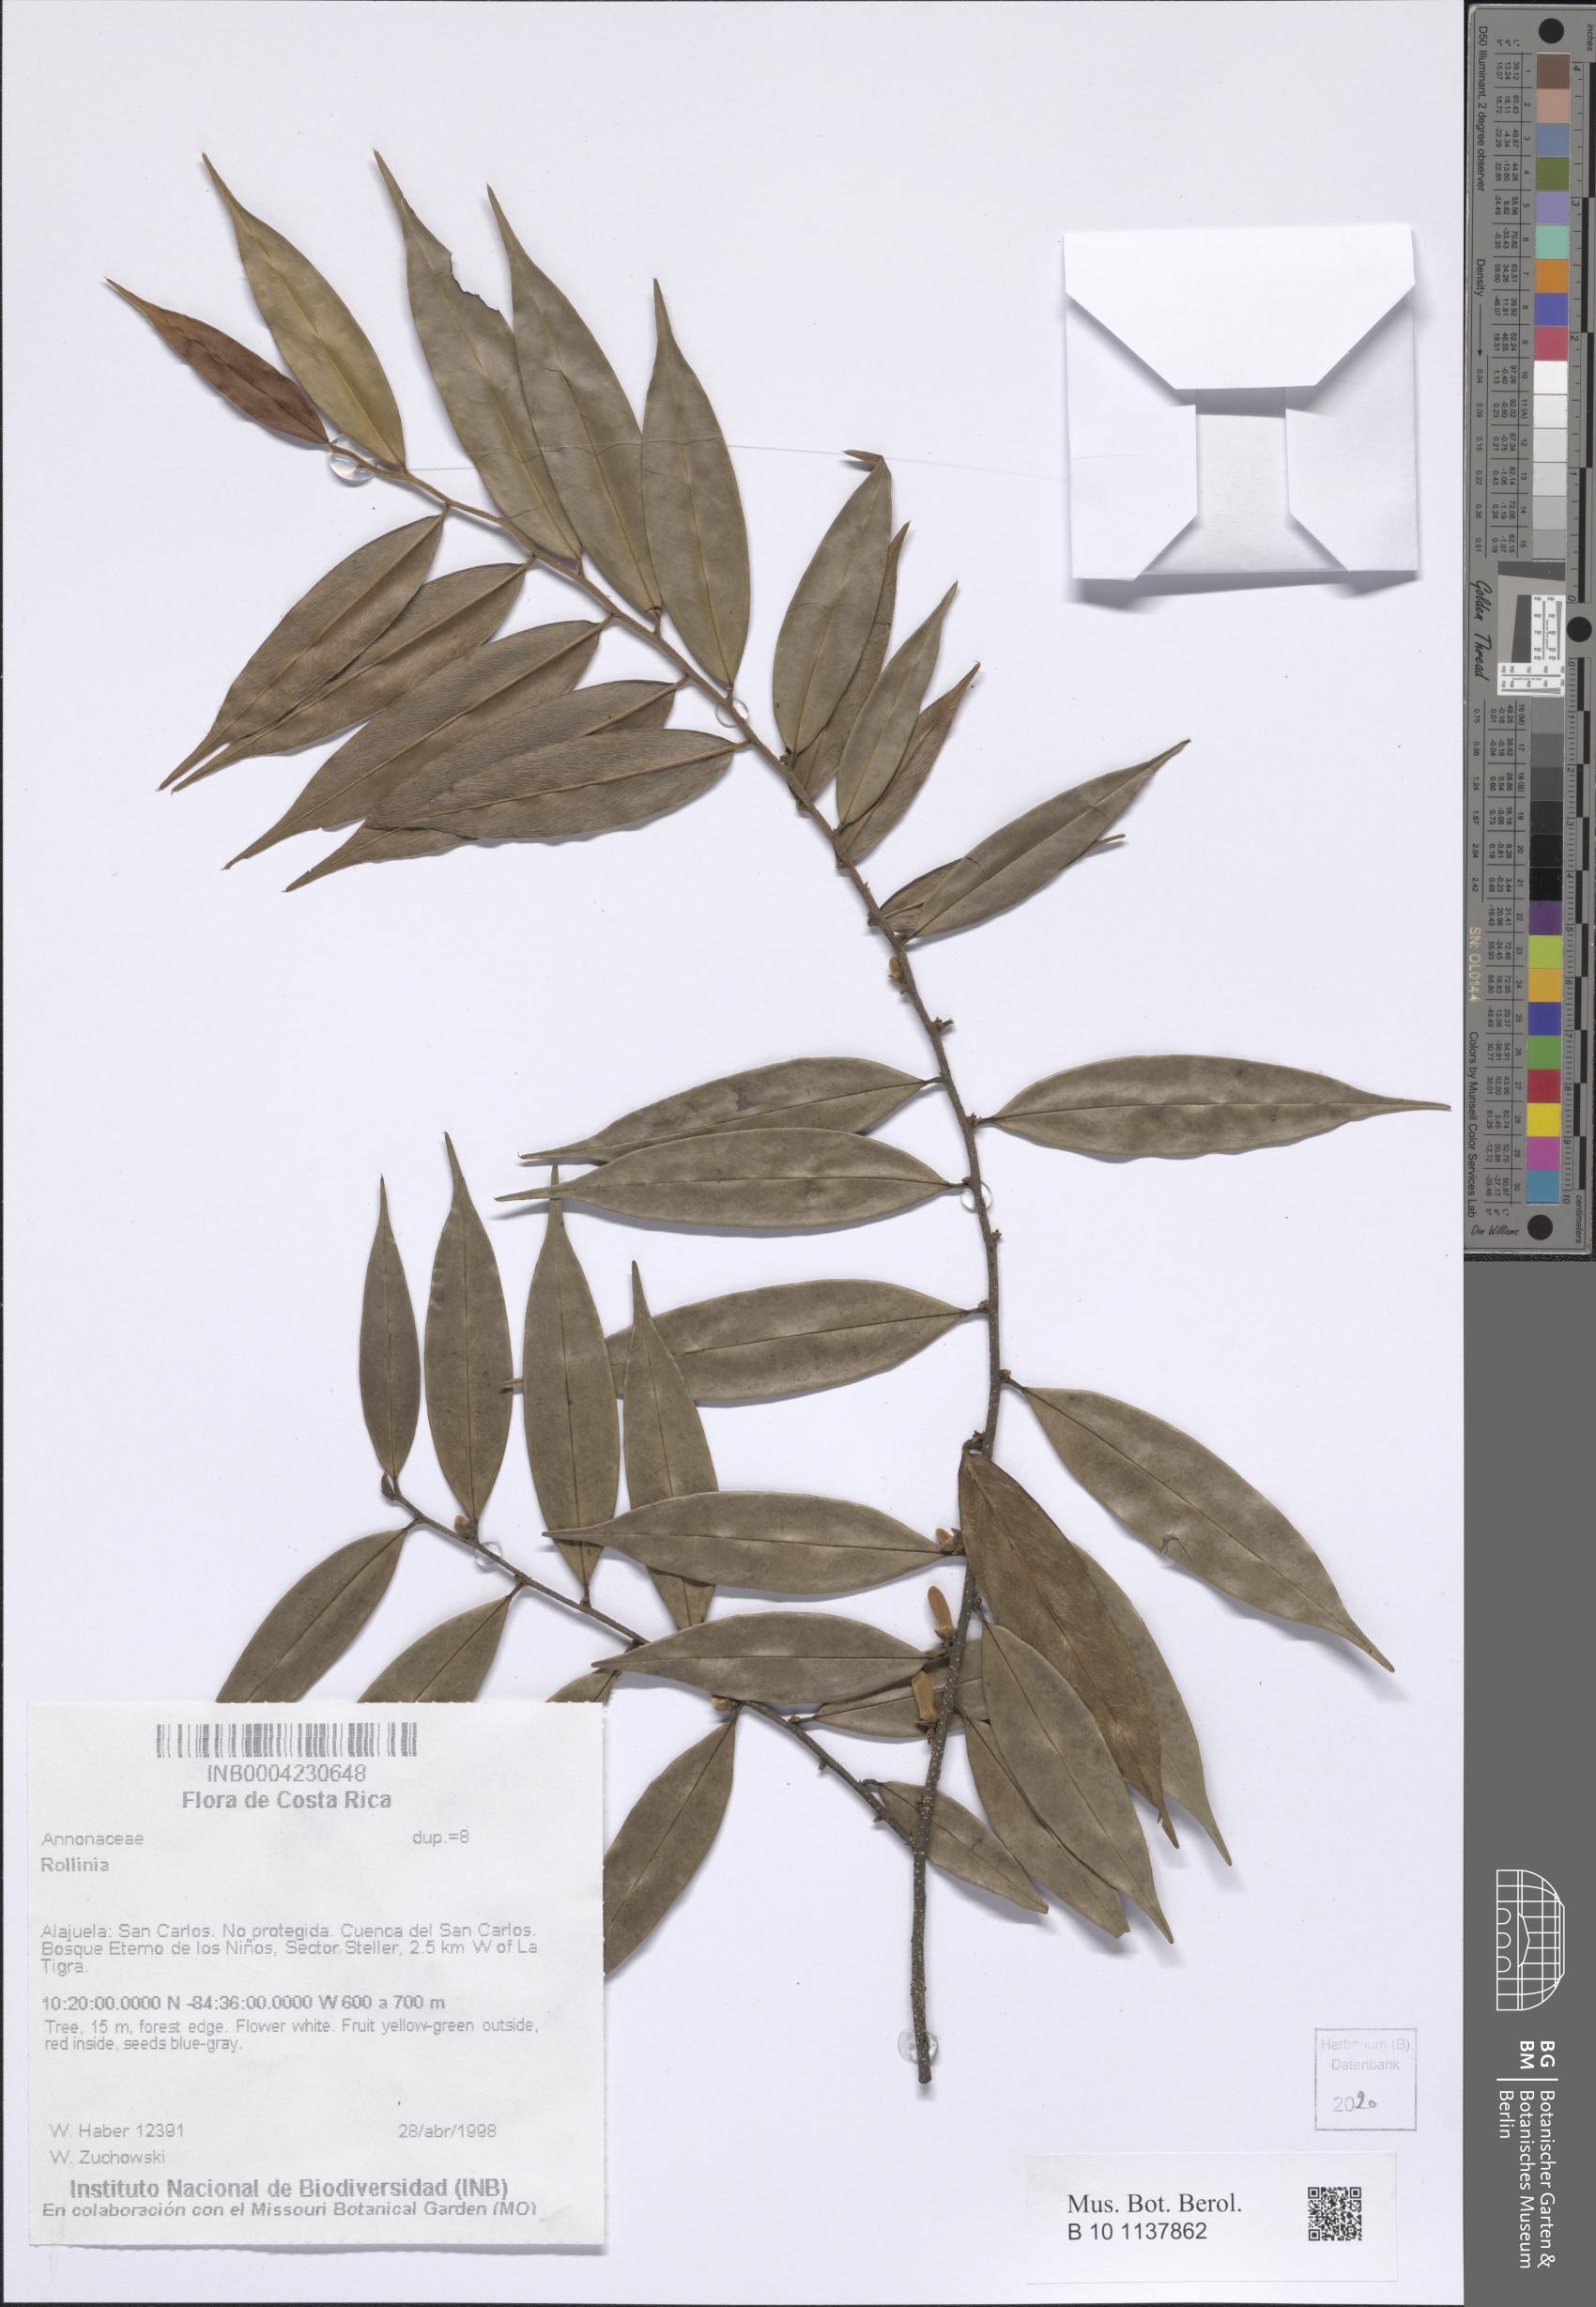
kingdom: Plantae
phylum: Tracheophyta
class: Magnoliopsida
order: Magnoliales
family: Annonaceae
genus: Annona
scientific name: Annona
